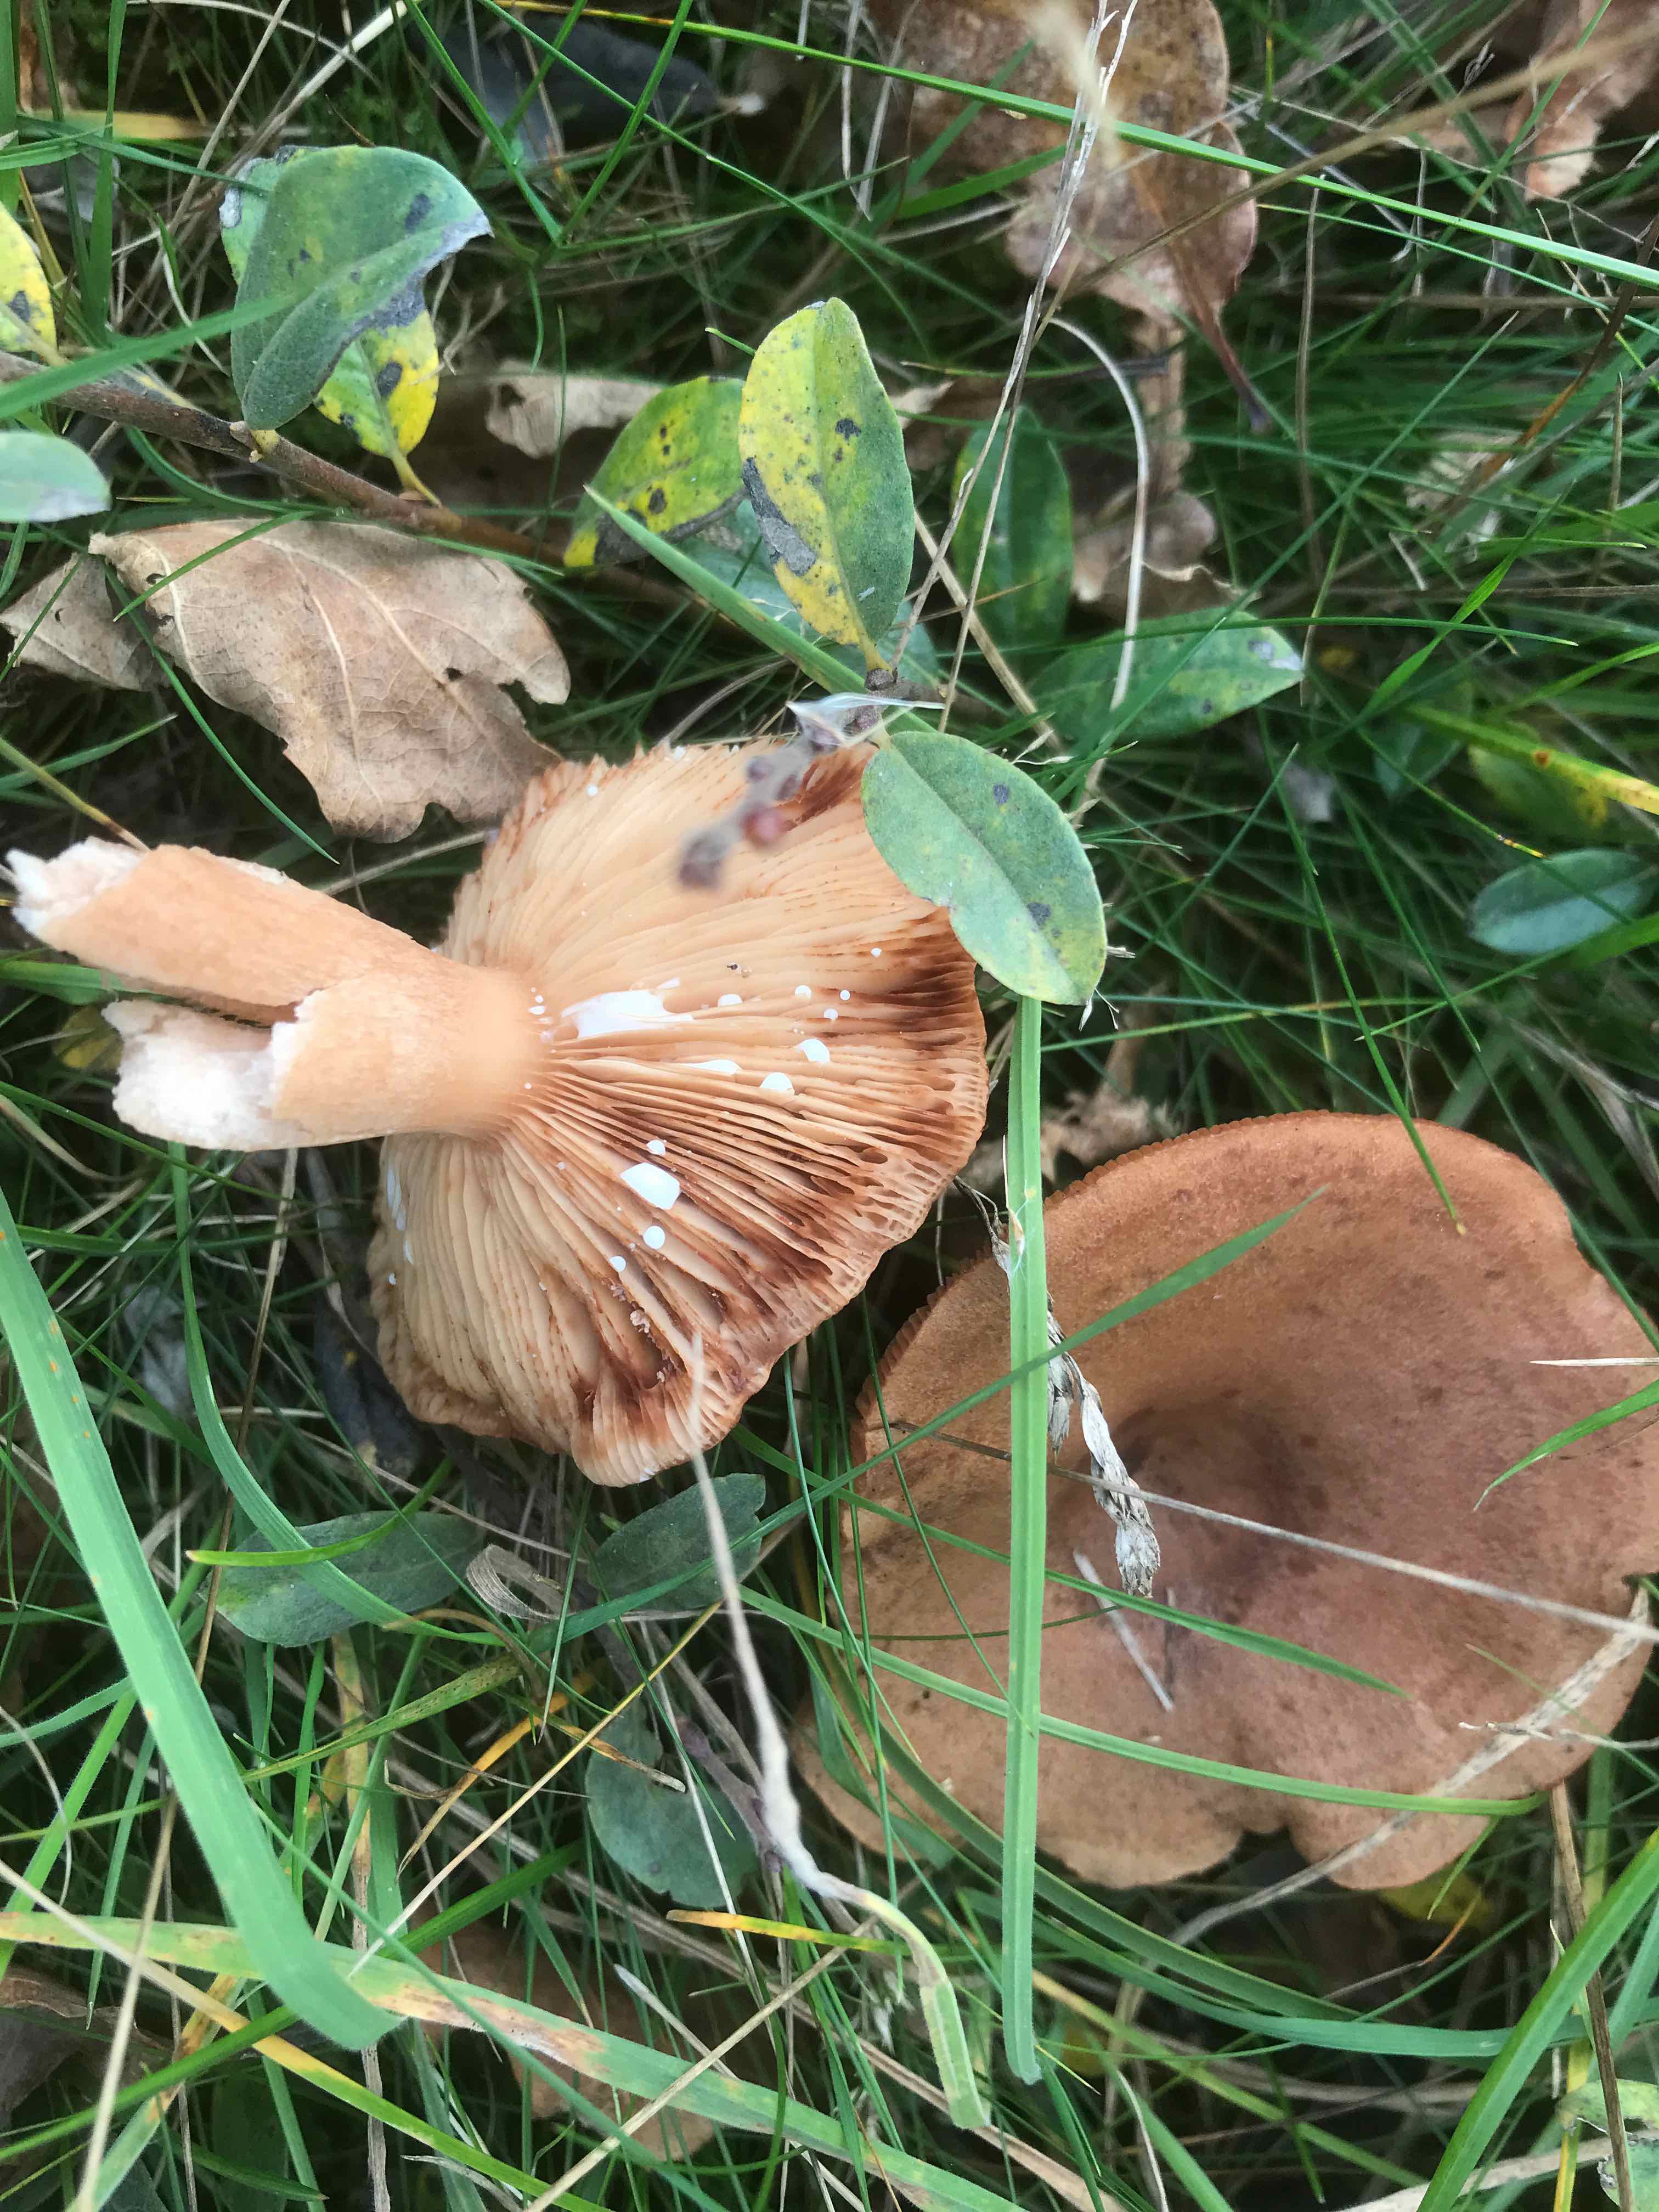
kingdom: Fungi
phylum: Basidiomycota
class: Agaricomycetes
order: Russulales
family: Russulaceae
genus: Lactarius
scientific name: Lactarius quietus
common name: ege-mælkehat
